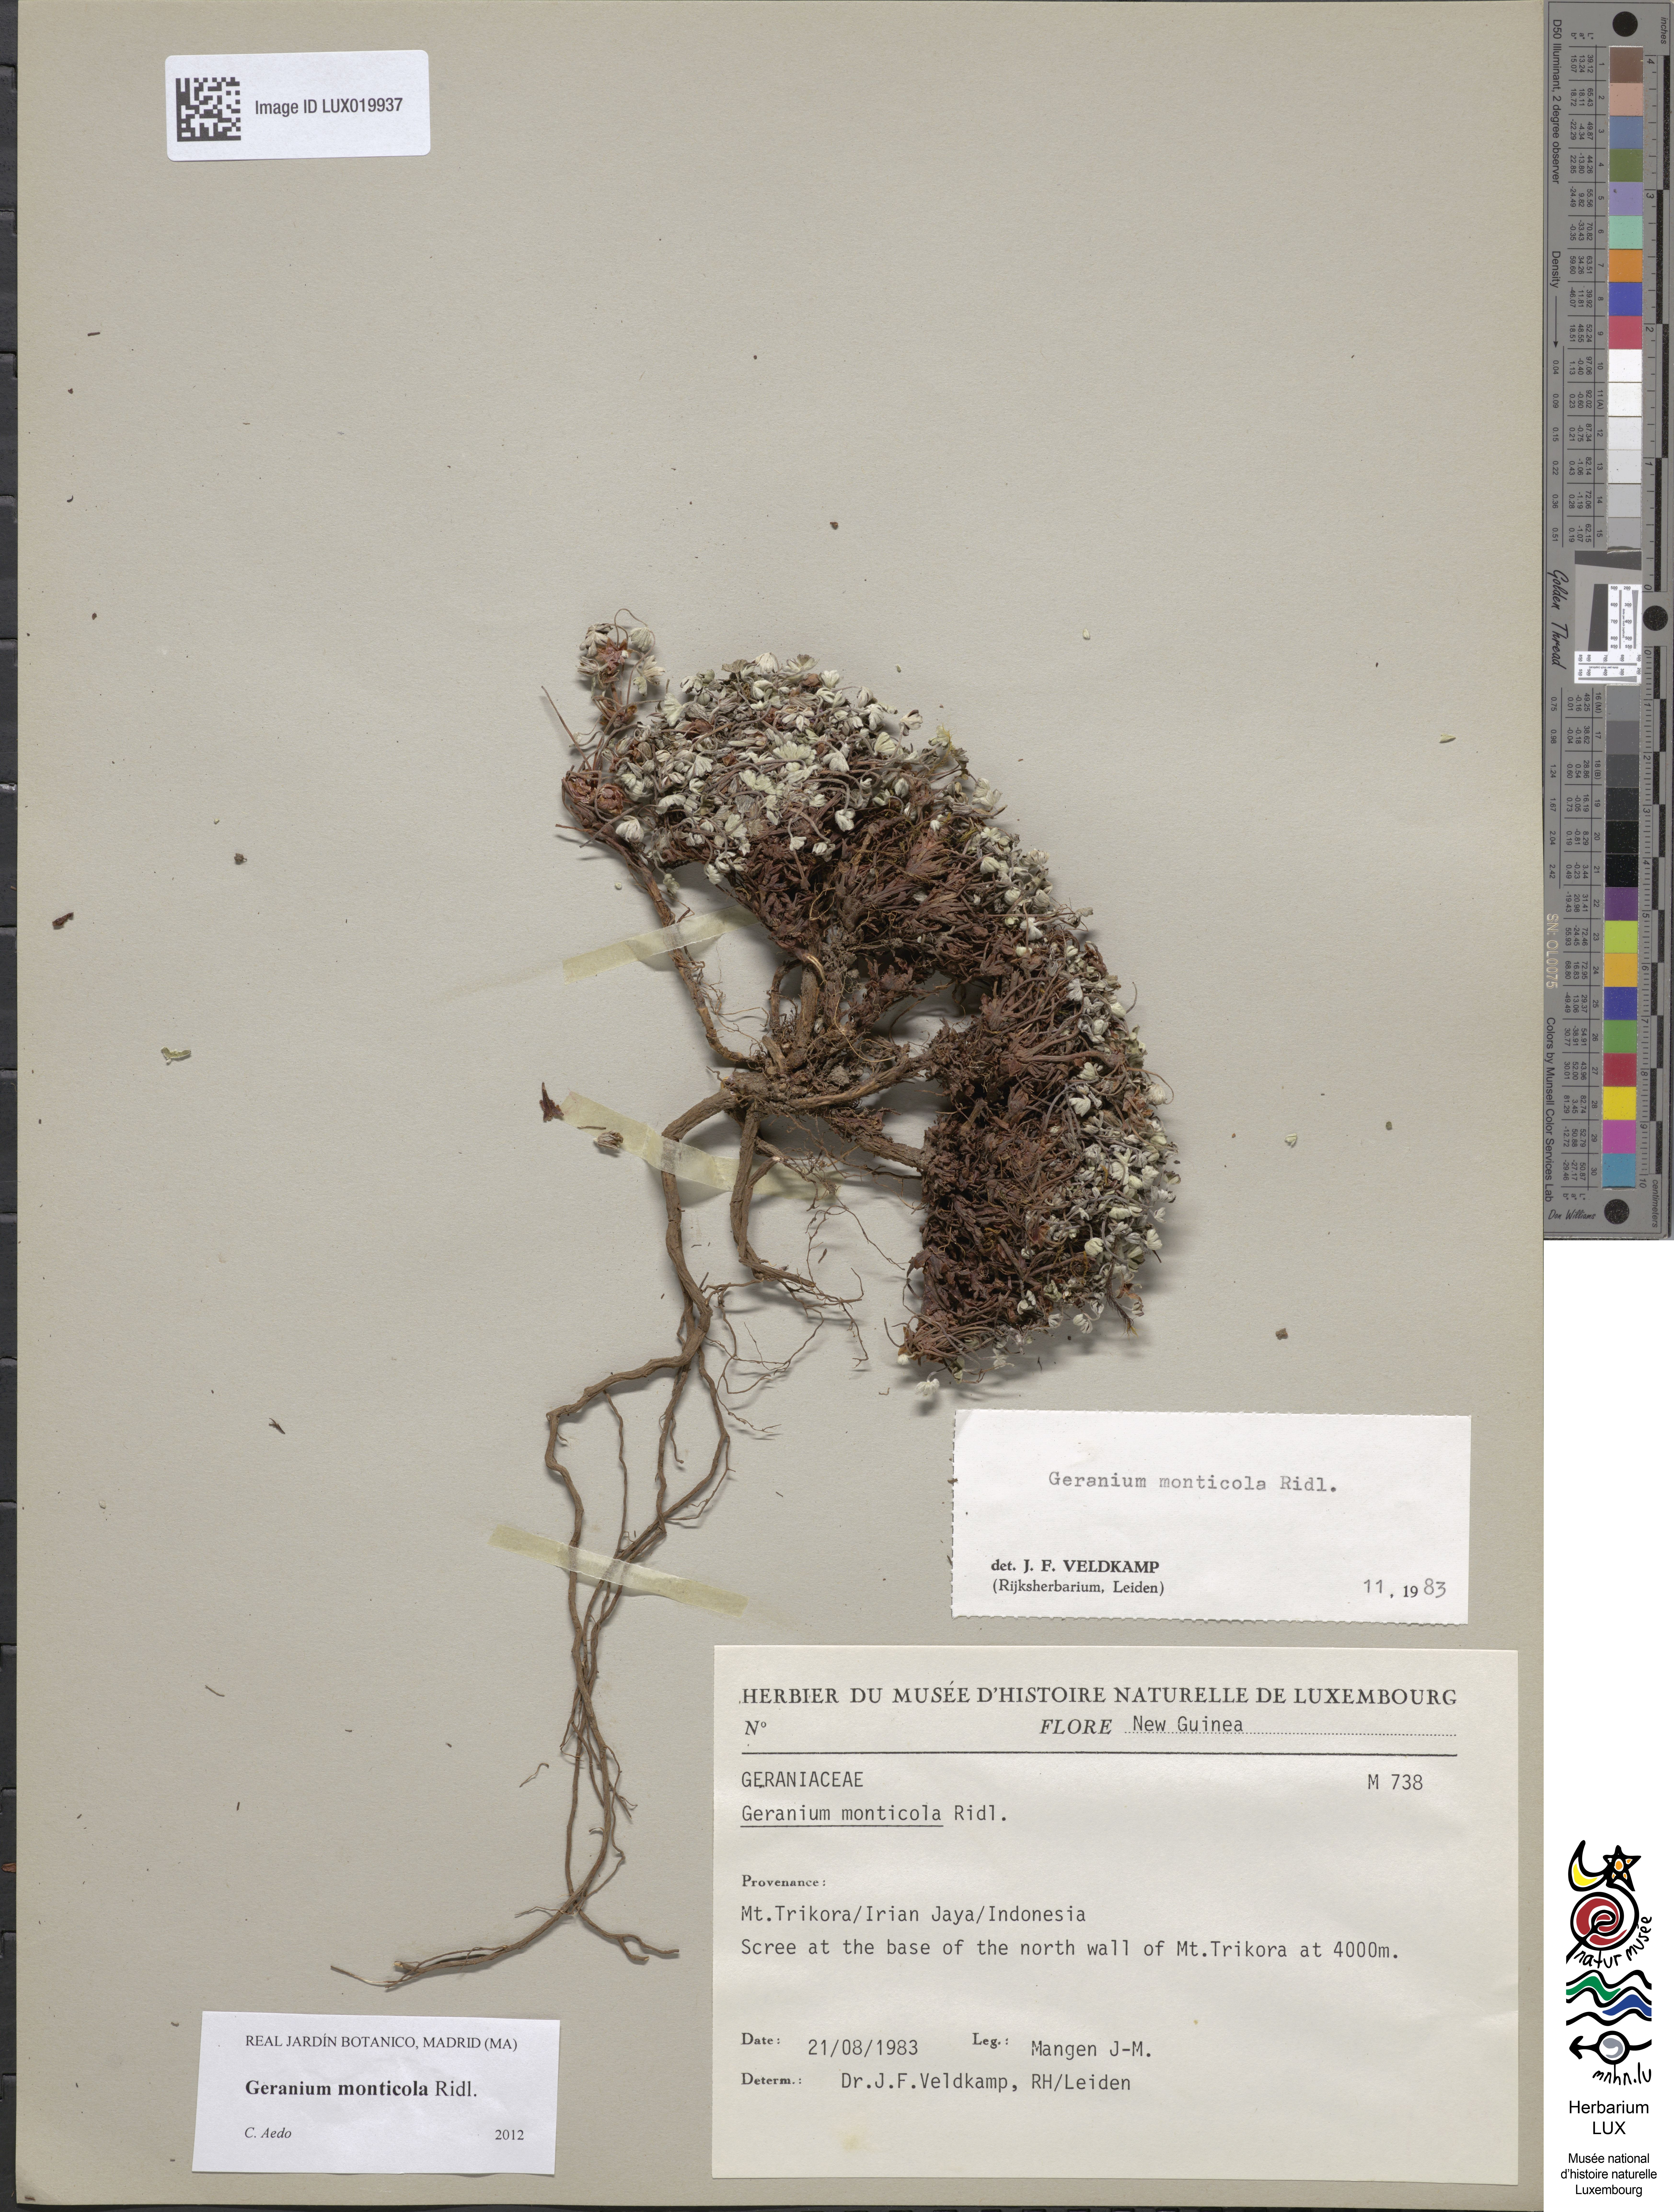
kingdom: Plantae
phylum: Tracheophyta
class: Magnoliopsida
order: Geraniales
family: Geraniaceae
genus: Geranium
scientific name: Geranium monticola
